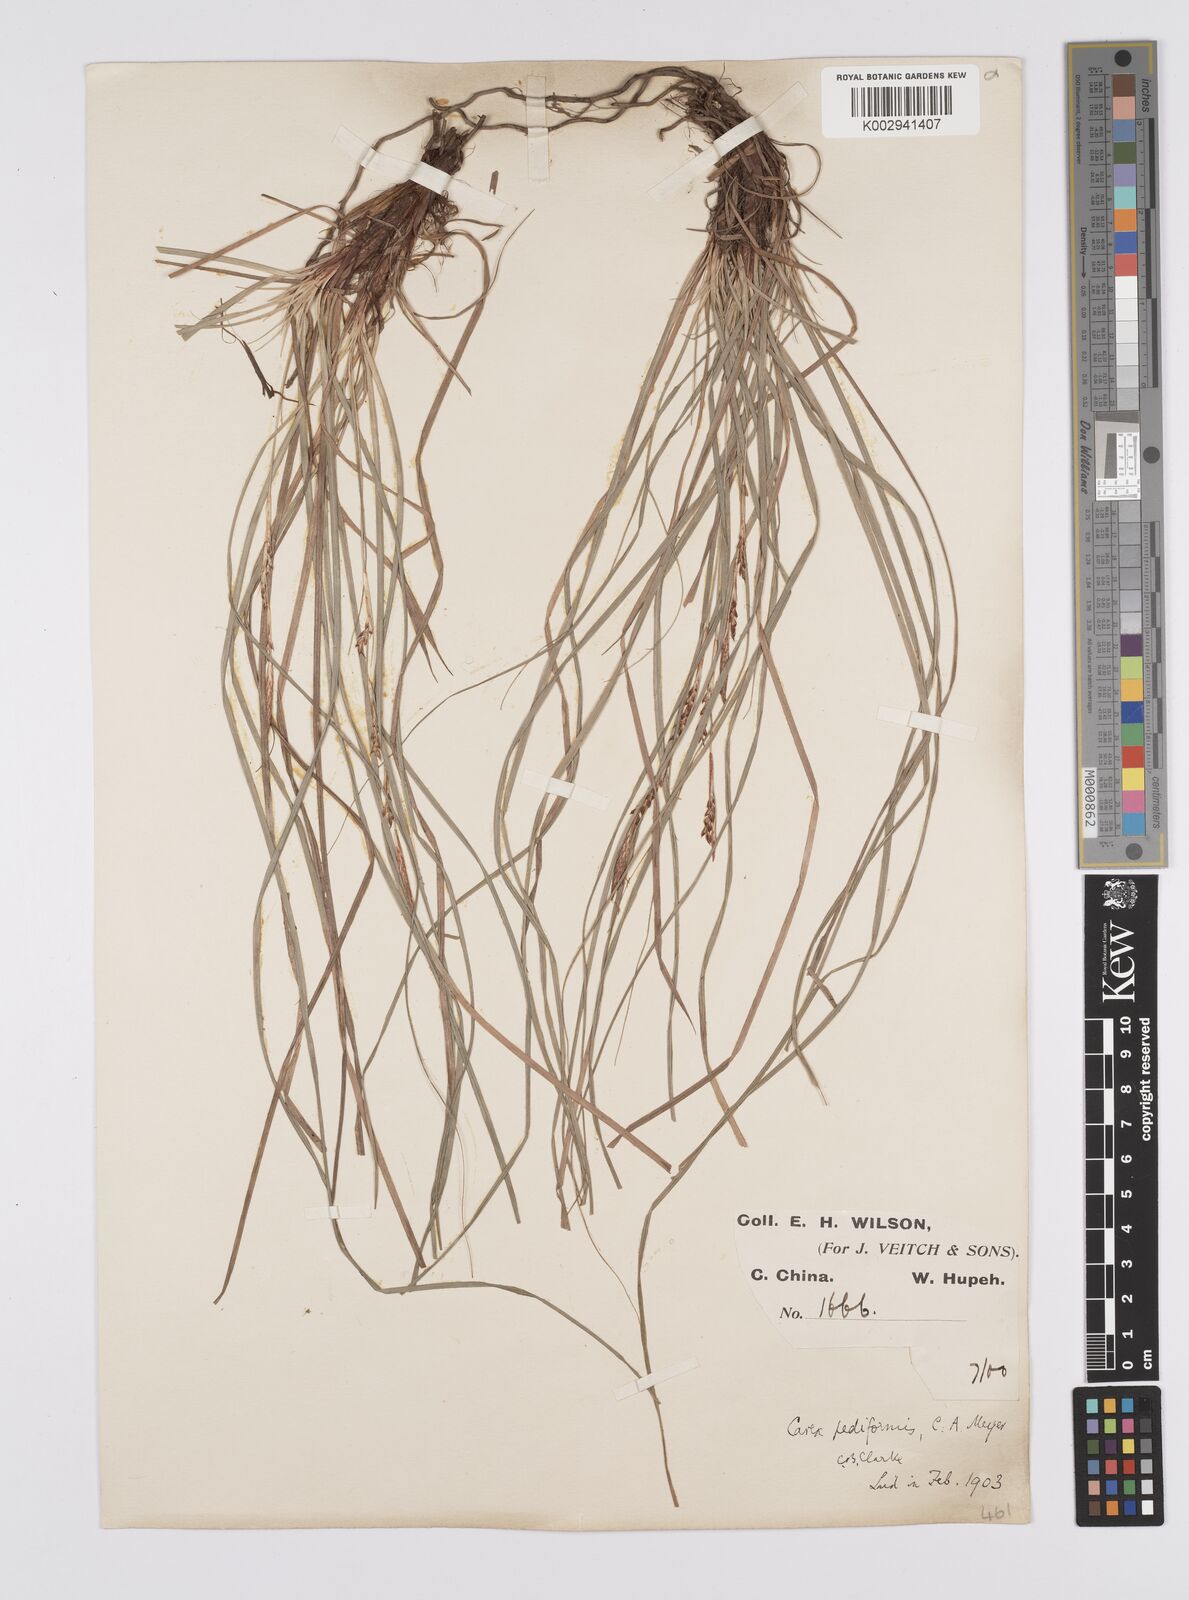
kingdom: Plantae
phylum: Tracheophyta
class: Liliopsida
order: Poales
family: Cyperaceae
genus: Carex
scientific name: Carex pediformis
